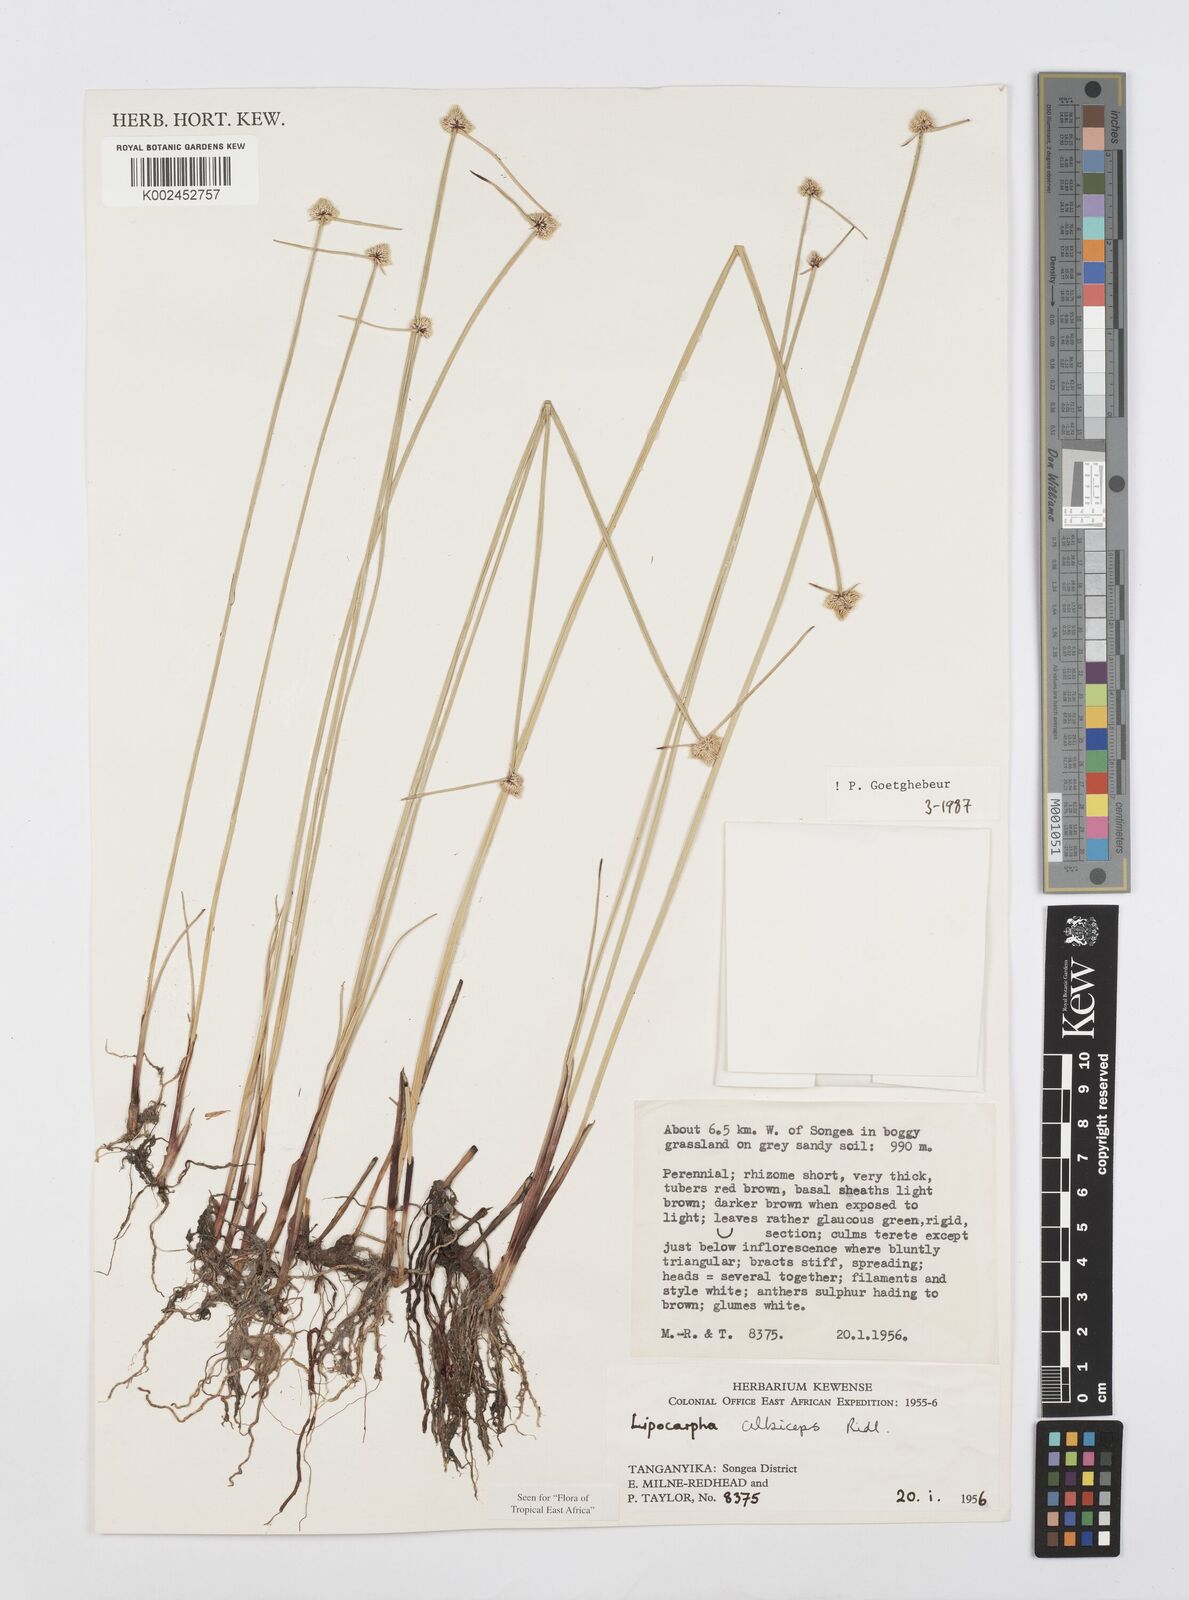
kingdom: Plantae
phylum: Tracheophyta
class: Liliopsida
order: Poales
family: Cyperaceae
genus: Cyperus
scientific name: Cyperus albiceps
